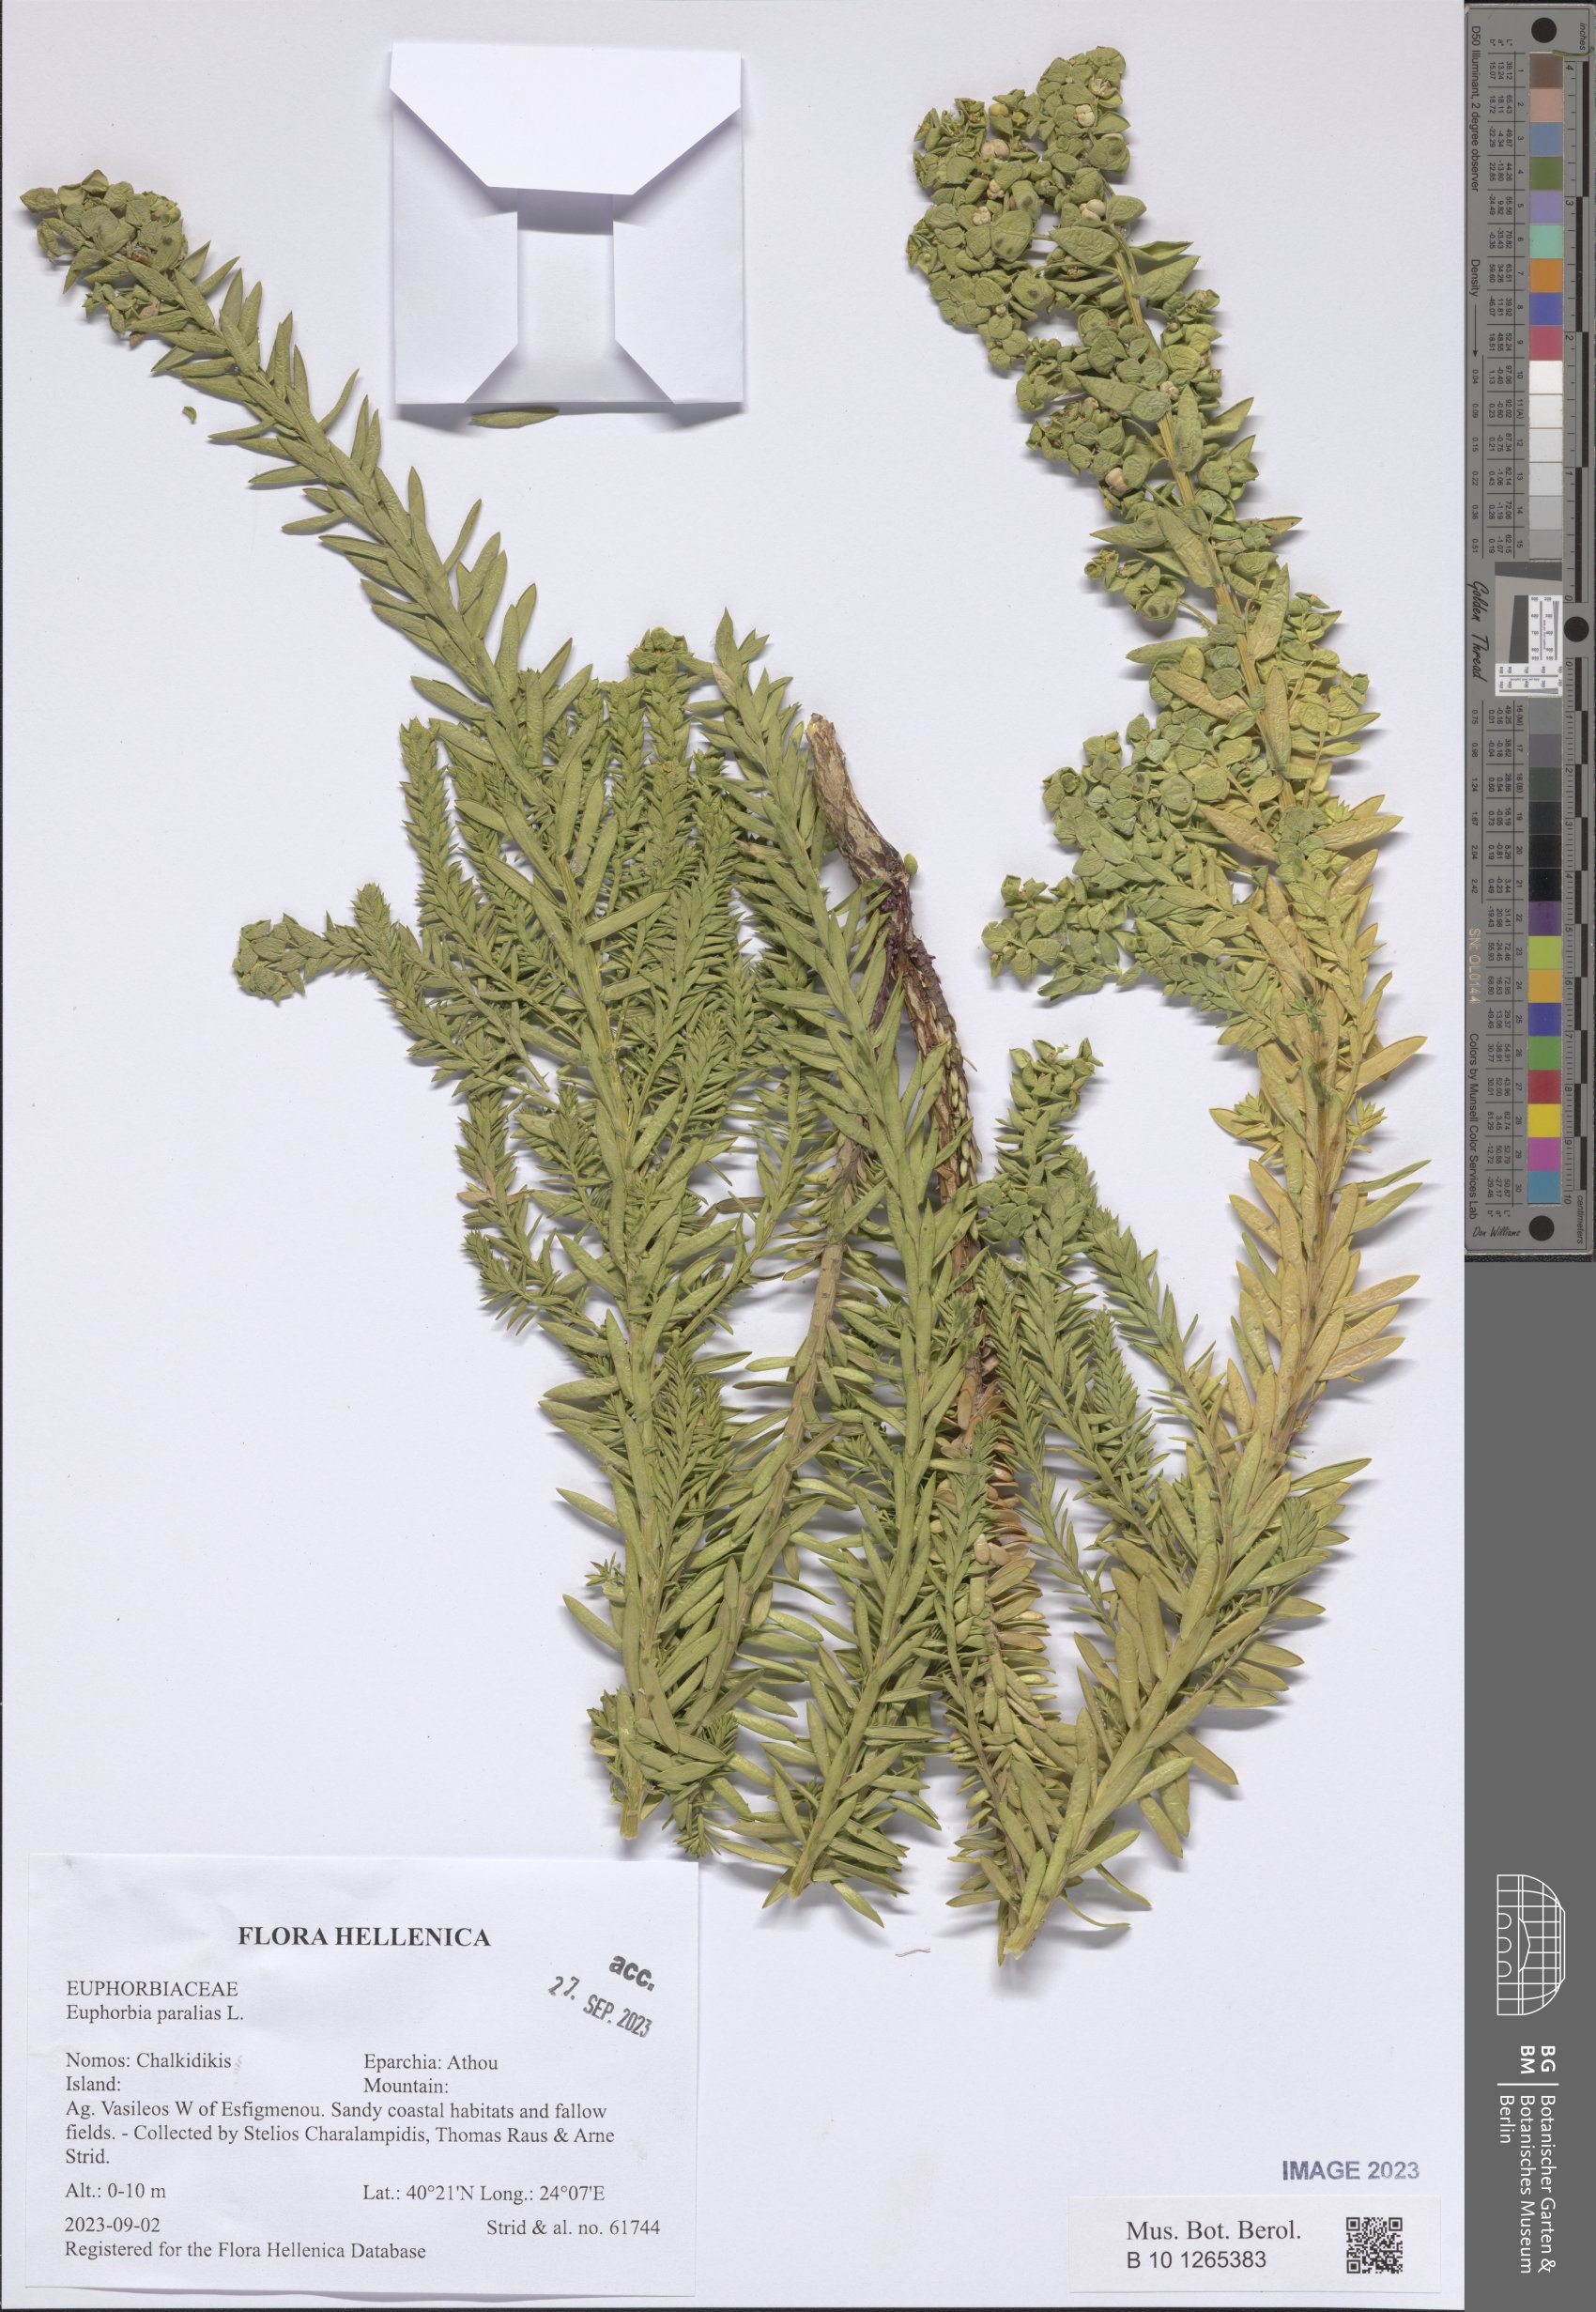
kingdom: Plantae
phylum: Tracheophyta
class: Magnoliopsida
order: Malpighiales
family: Euphorbiaceae
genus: Euphorbia
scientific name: Euphorbia paralias
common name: Sea spurge
